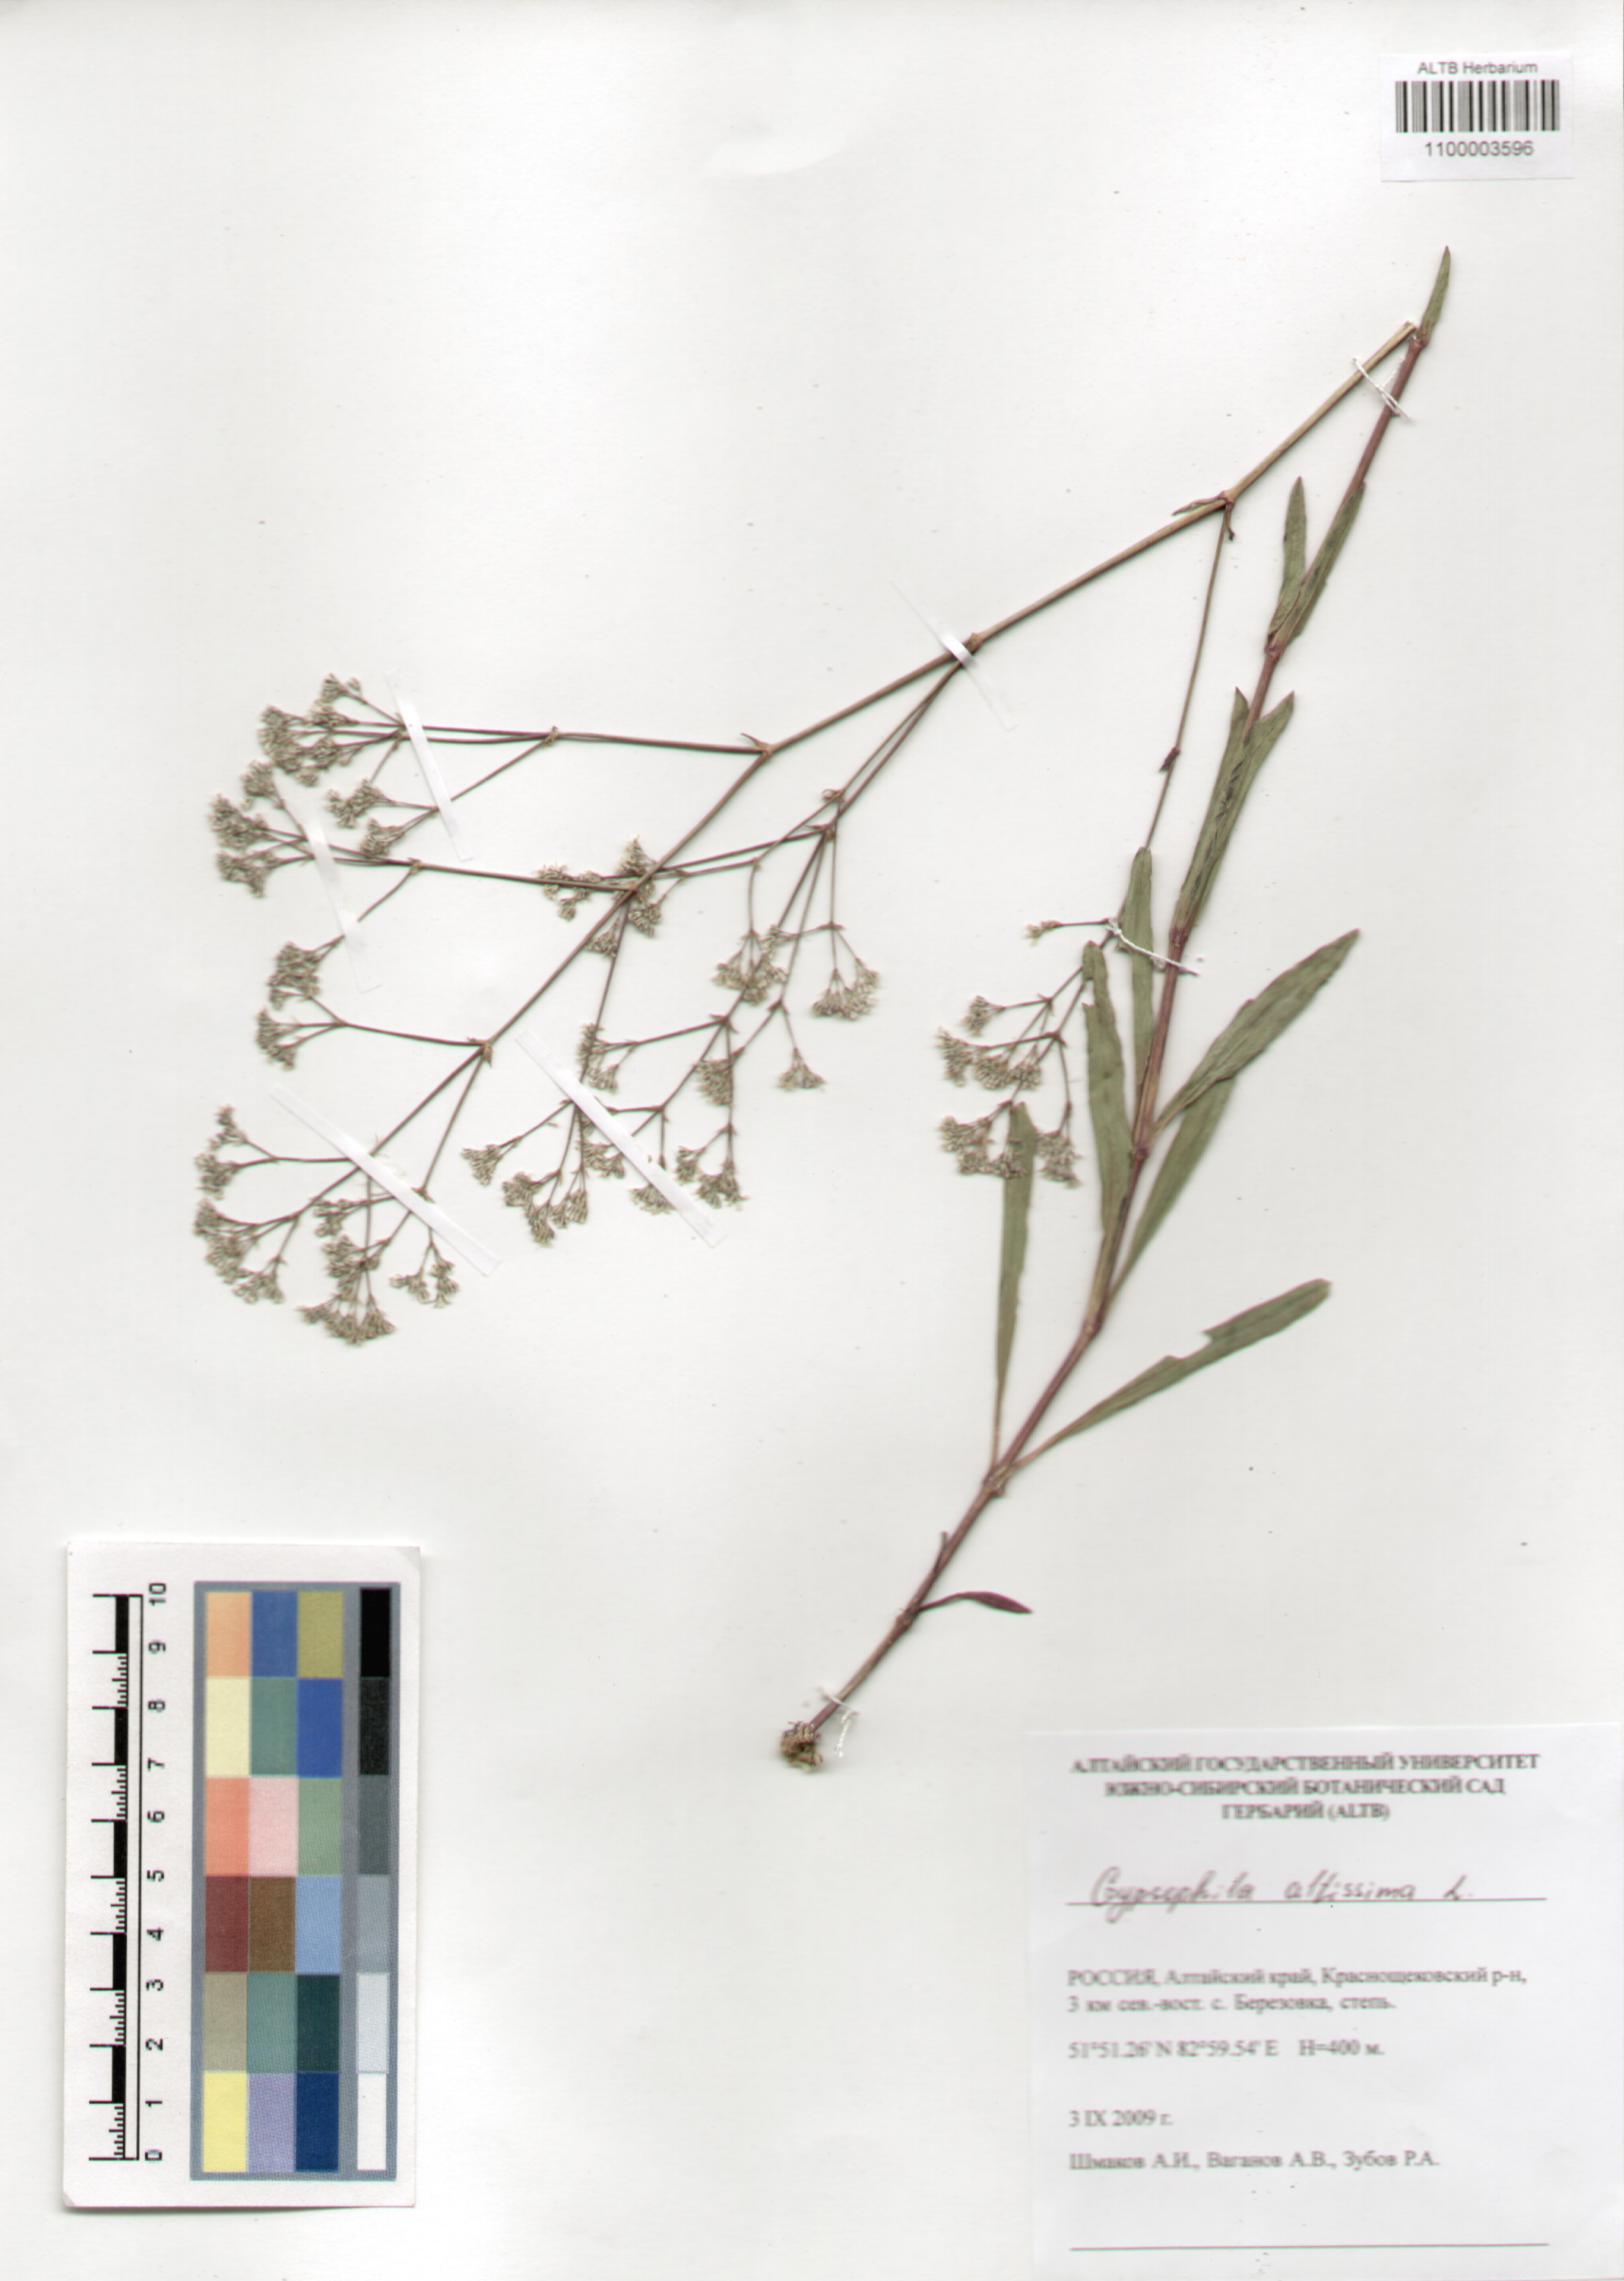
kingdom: Plantae
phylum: Tracheophyta
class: Magnoliopsida
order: Caryophyllales
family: Caryophyllaceae
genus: Gypsophila
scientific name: Gypsophila altissima
